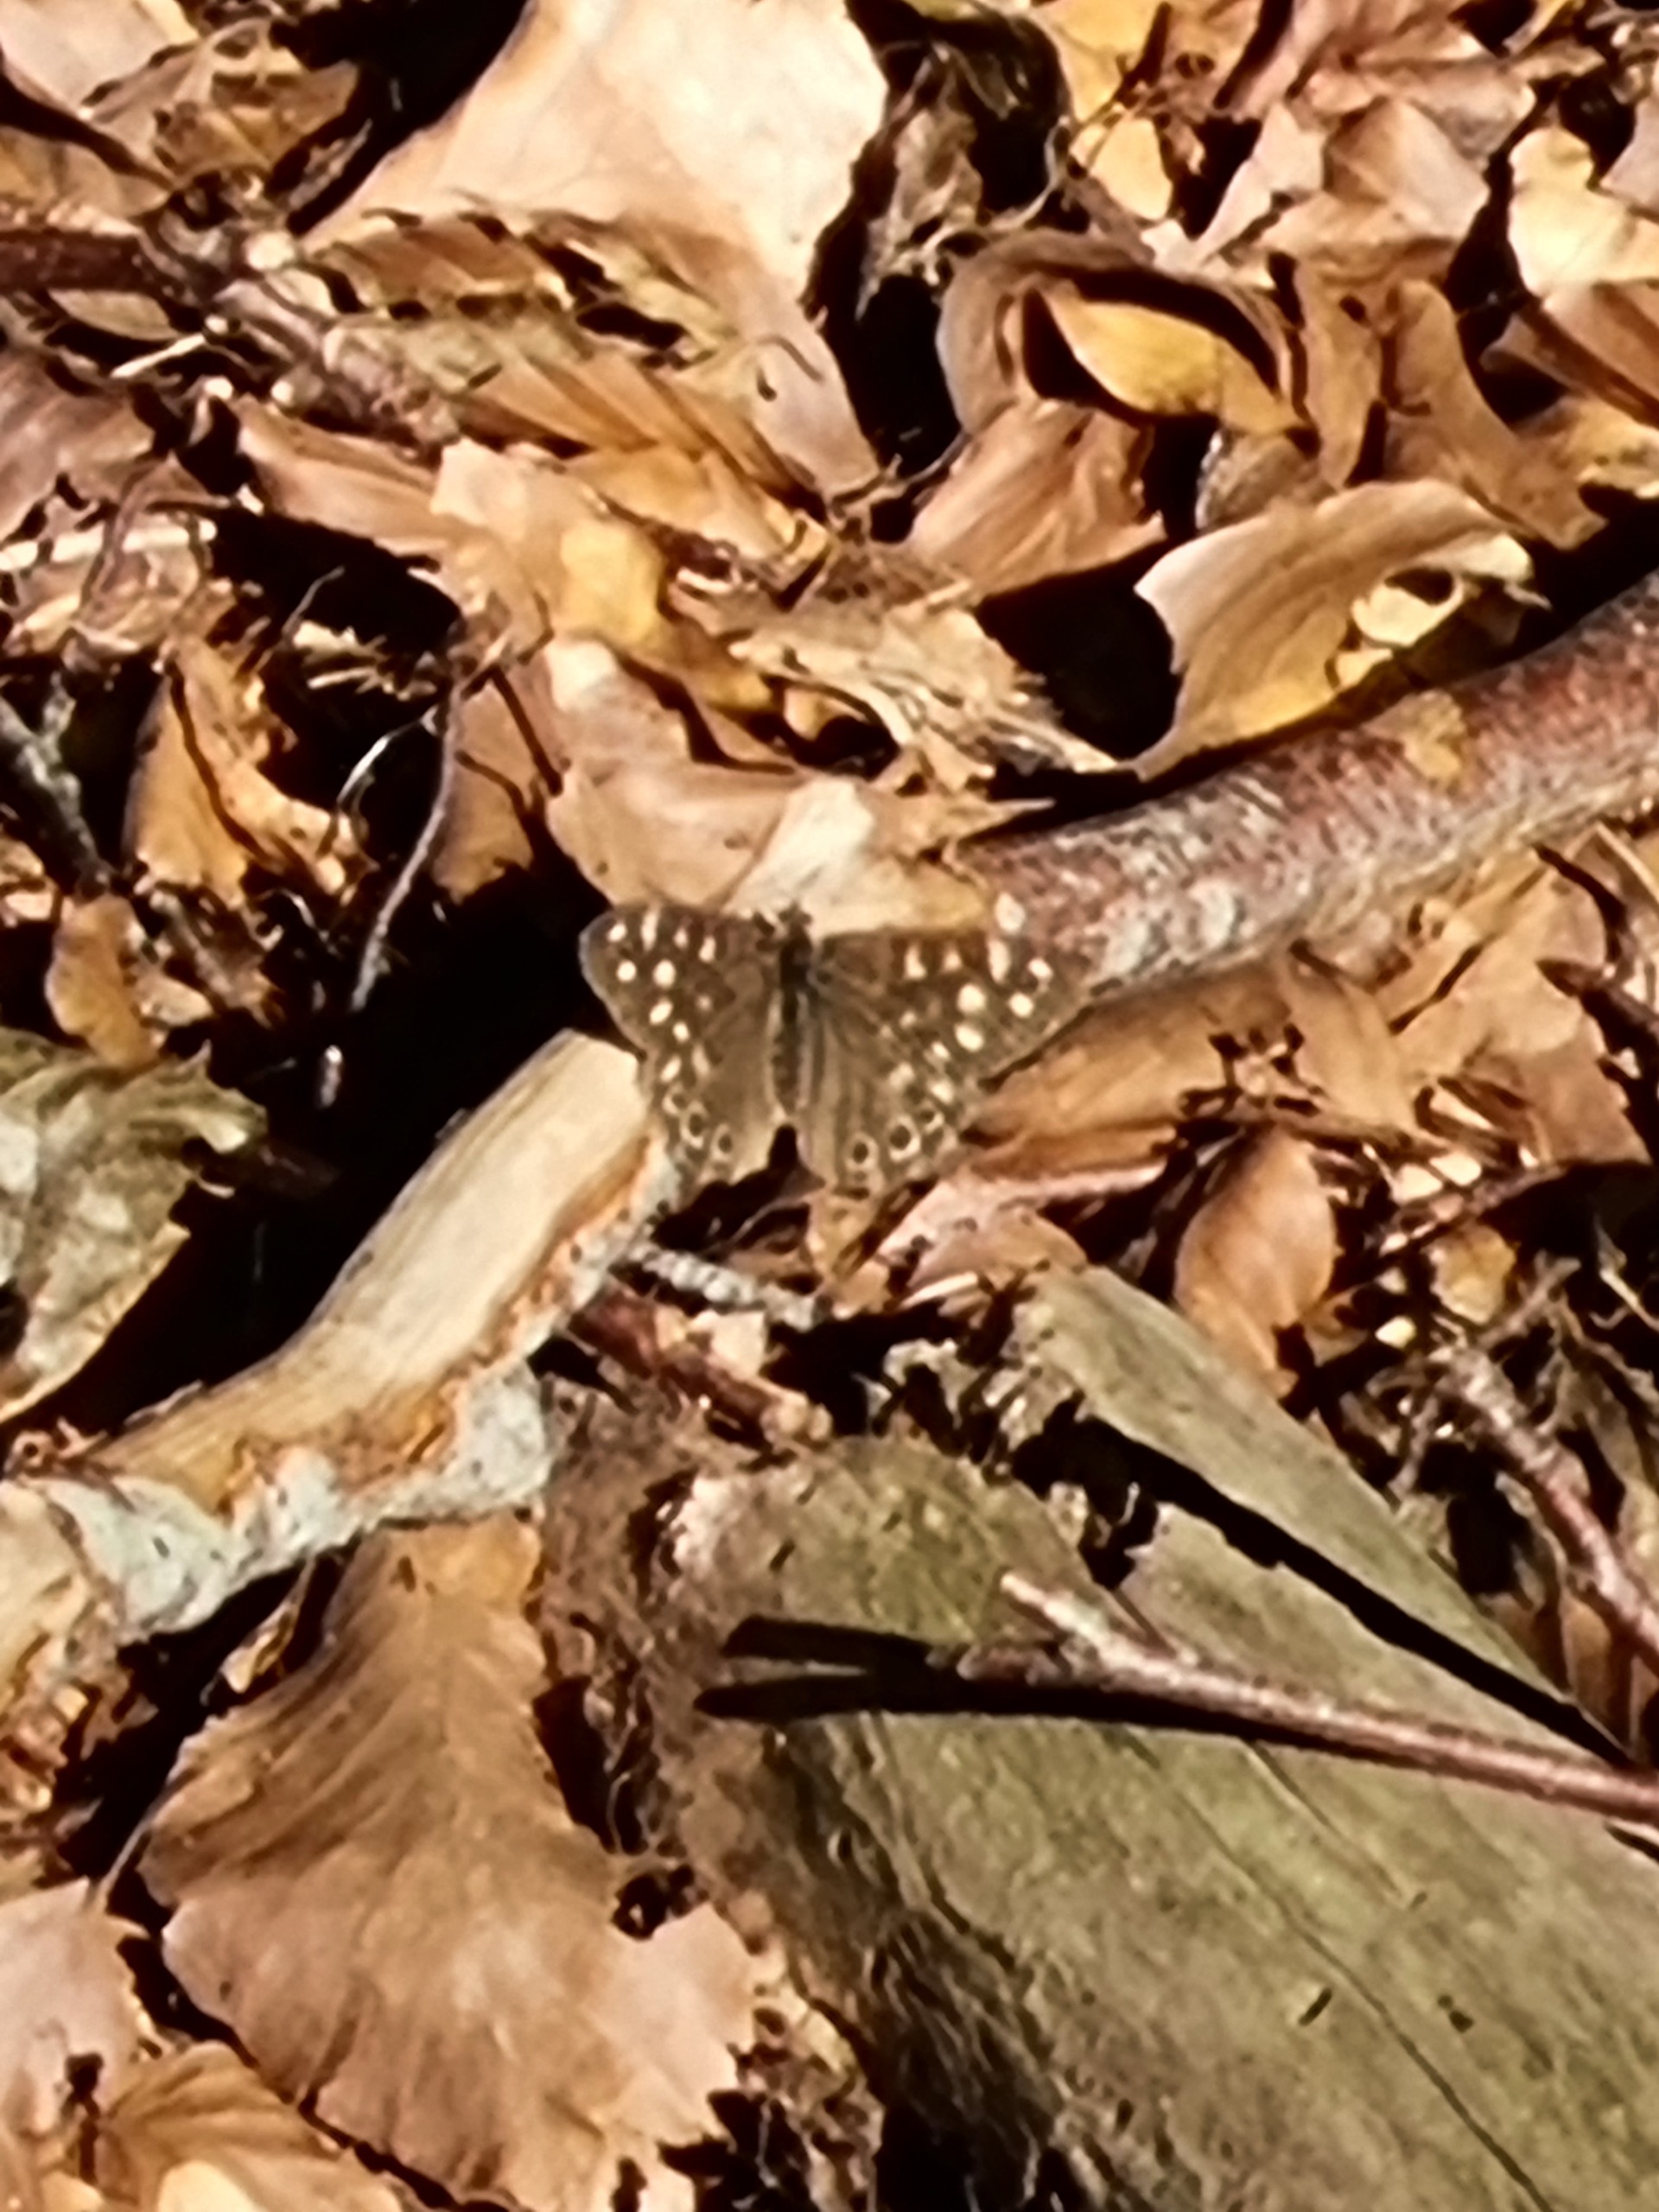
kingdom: Animalia
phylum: Arthropoda
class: Insecta
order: Lepidoptera
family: Nymphalidae
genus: Pararge
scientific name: Pararge aegeria
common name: Skovrandøje
